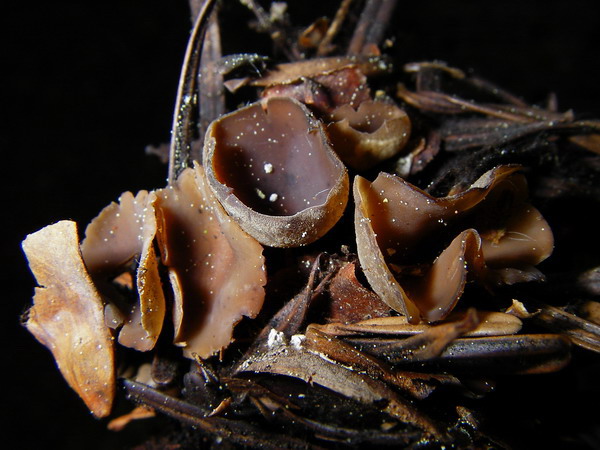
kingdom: Fungi
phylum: Ascomycota
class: Leotiomycetes
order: Helotiales
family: Sclerotiniaceae
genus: Ciboria
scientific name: Ciboria rufofusca
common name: kogleskæl-knoldskive
